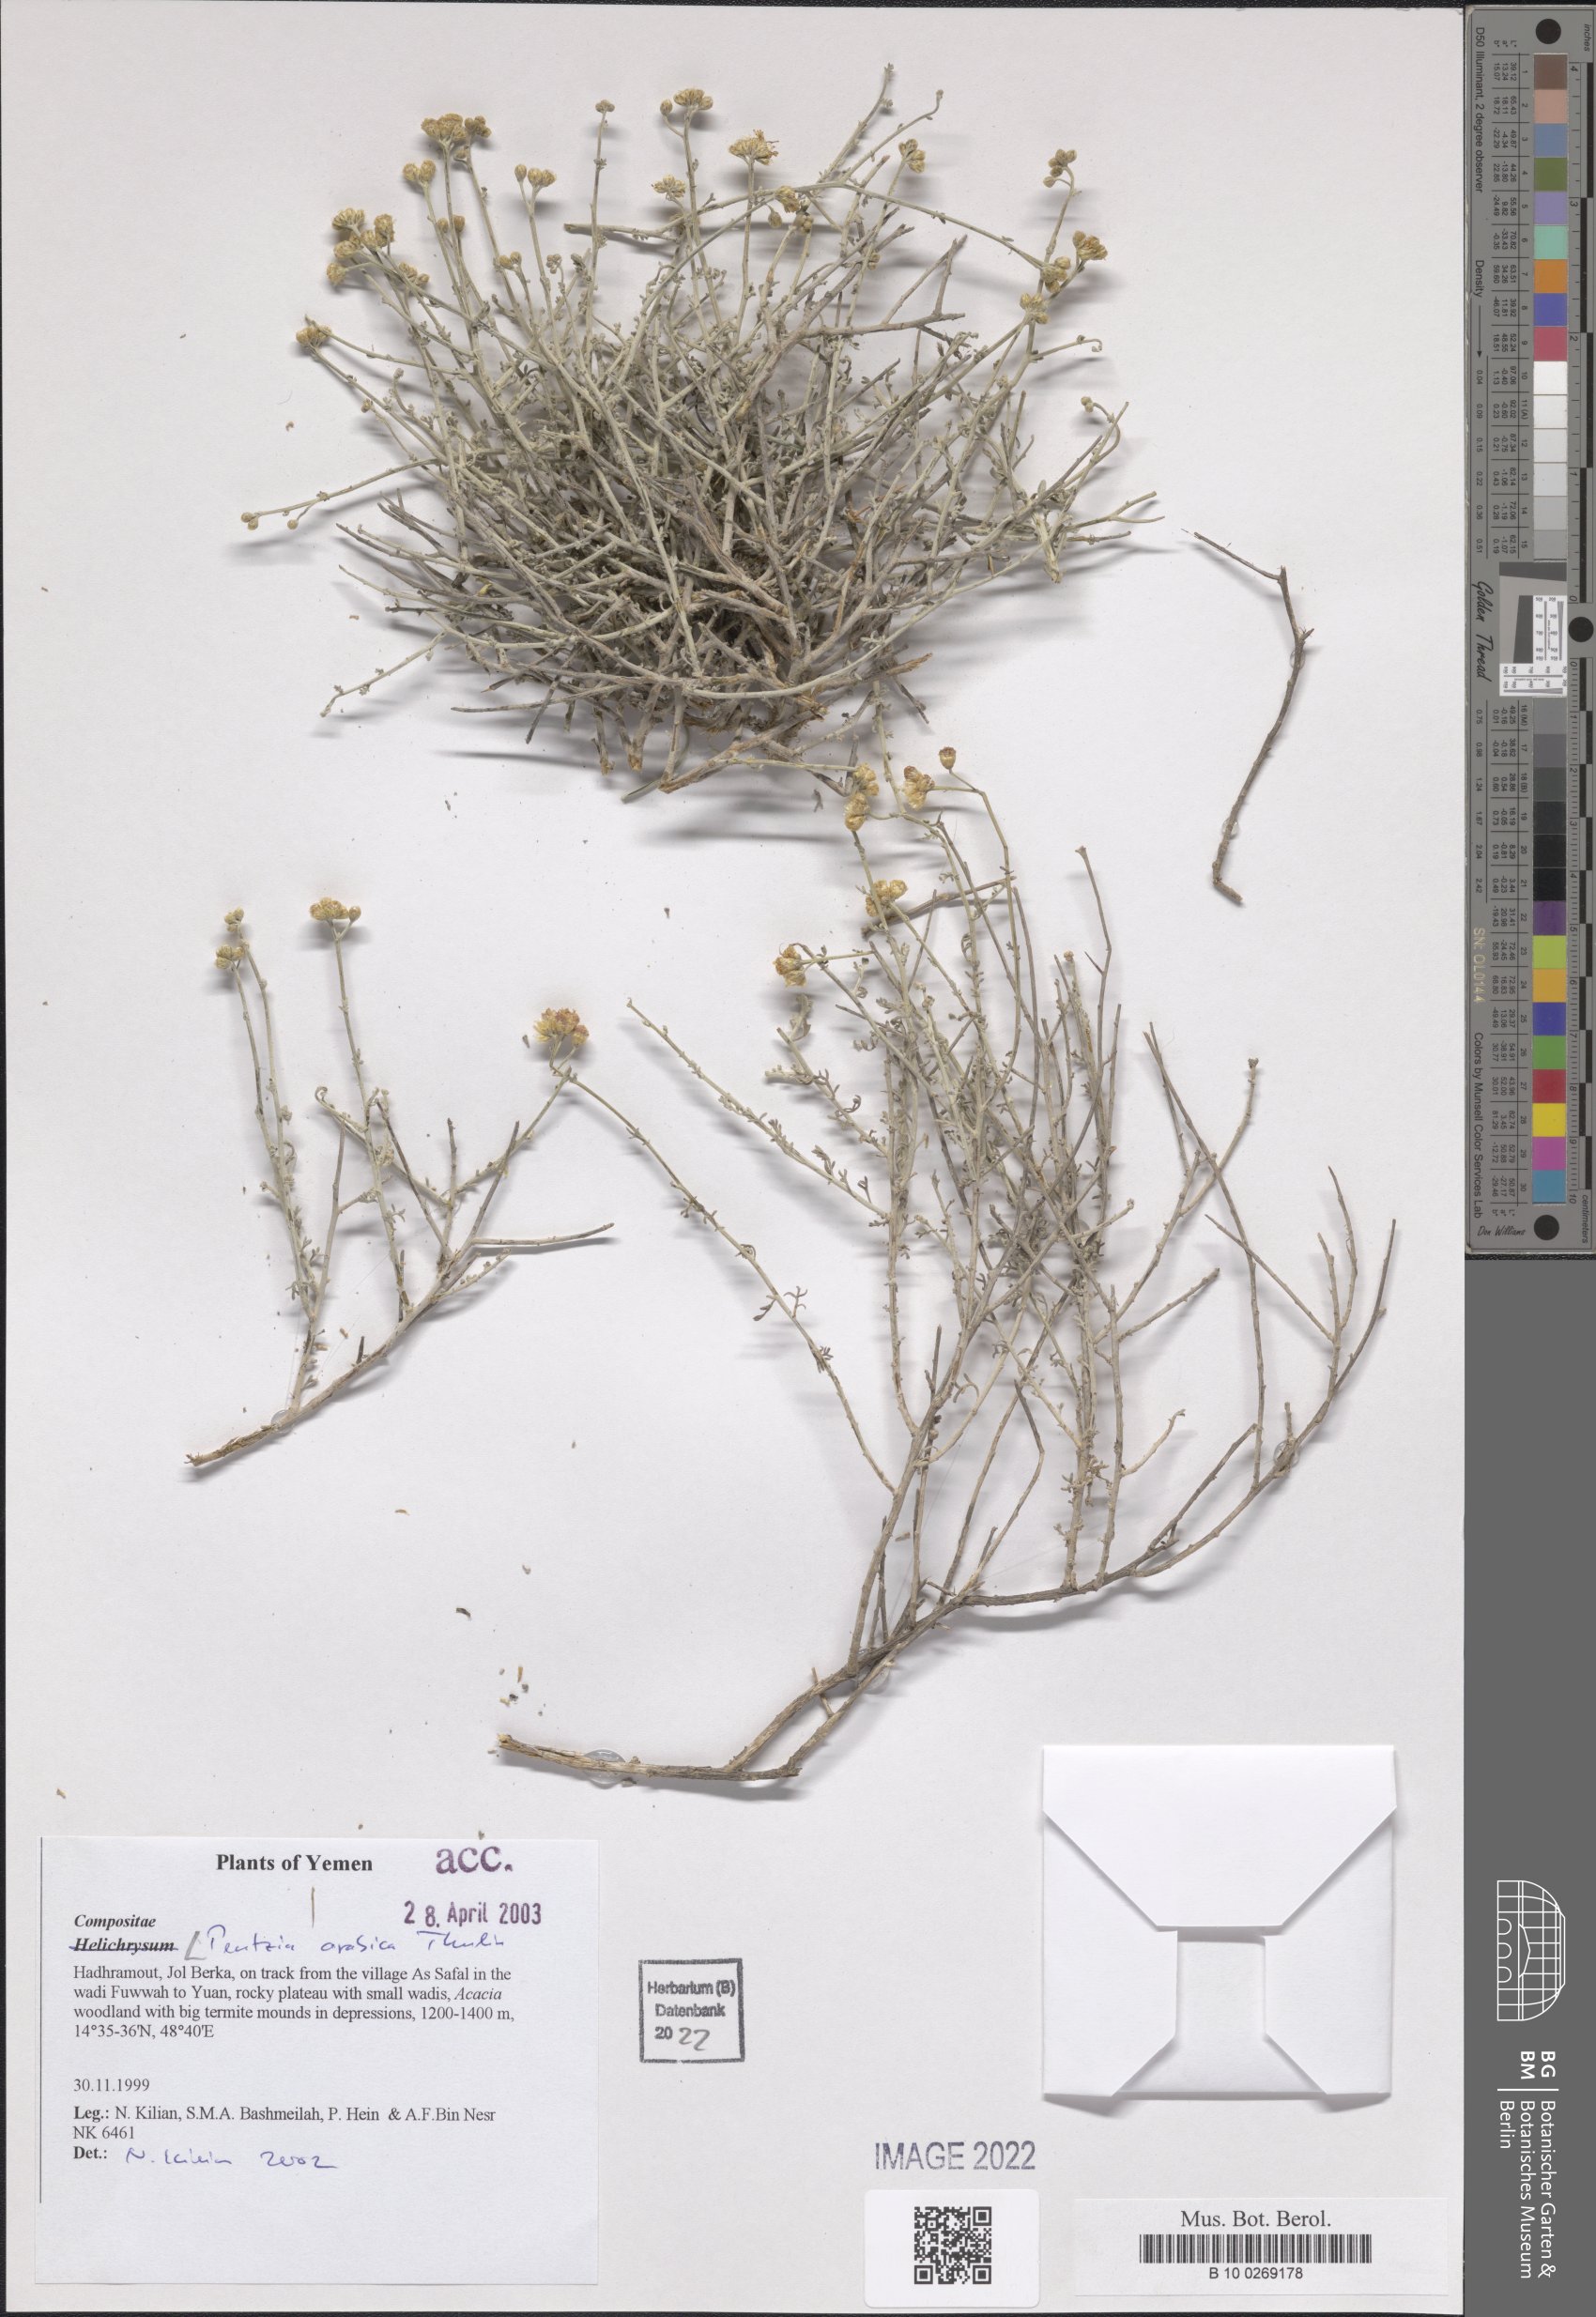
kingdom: Plantae
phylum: Tracheophyta
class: Magnoliopsida
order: Asterales
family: Asteraceae
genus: Pentzia
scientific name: Pentzia arabica
